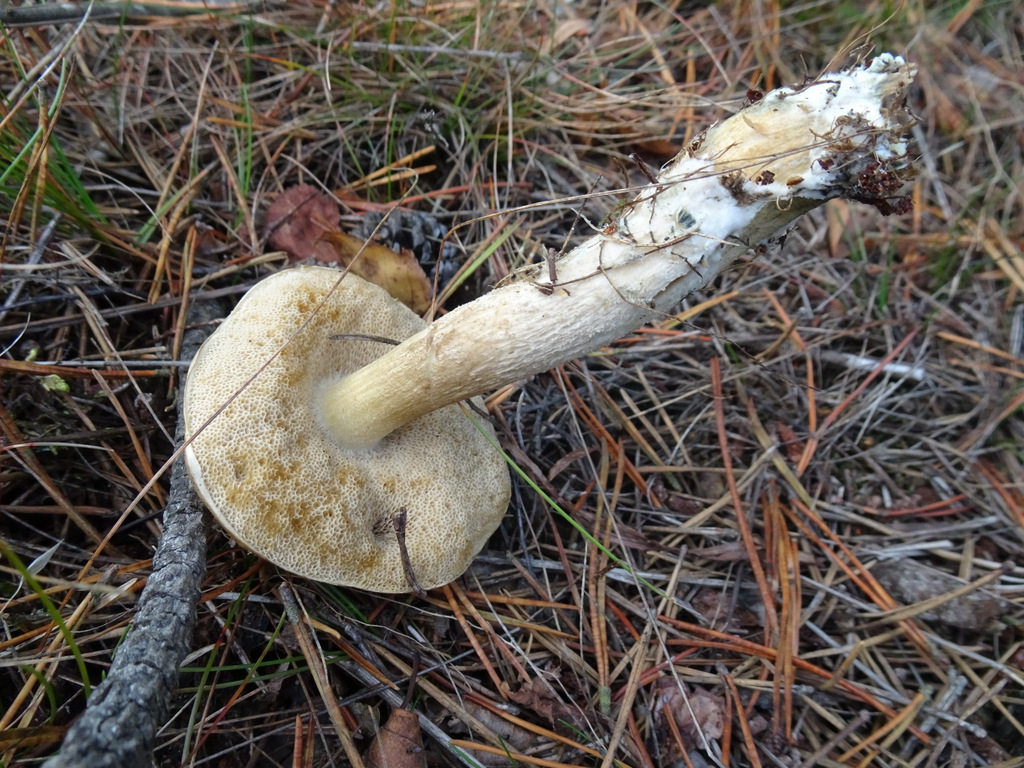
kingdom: Fungi
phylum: Basidiomycota
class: Agaricomycetes
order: Boletales
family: Boletaceae
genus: Leccinum
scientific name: Leccinum
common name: skælrørhat
